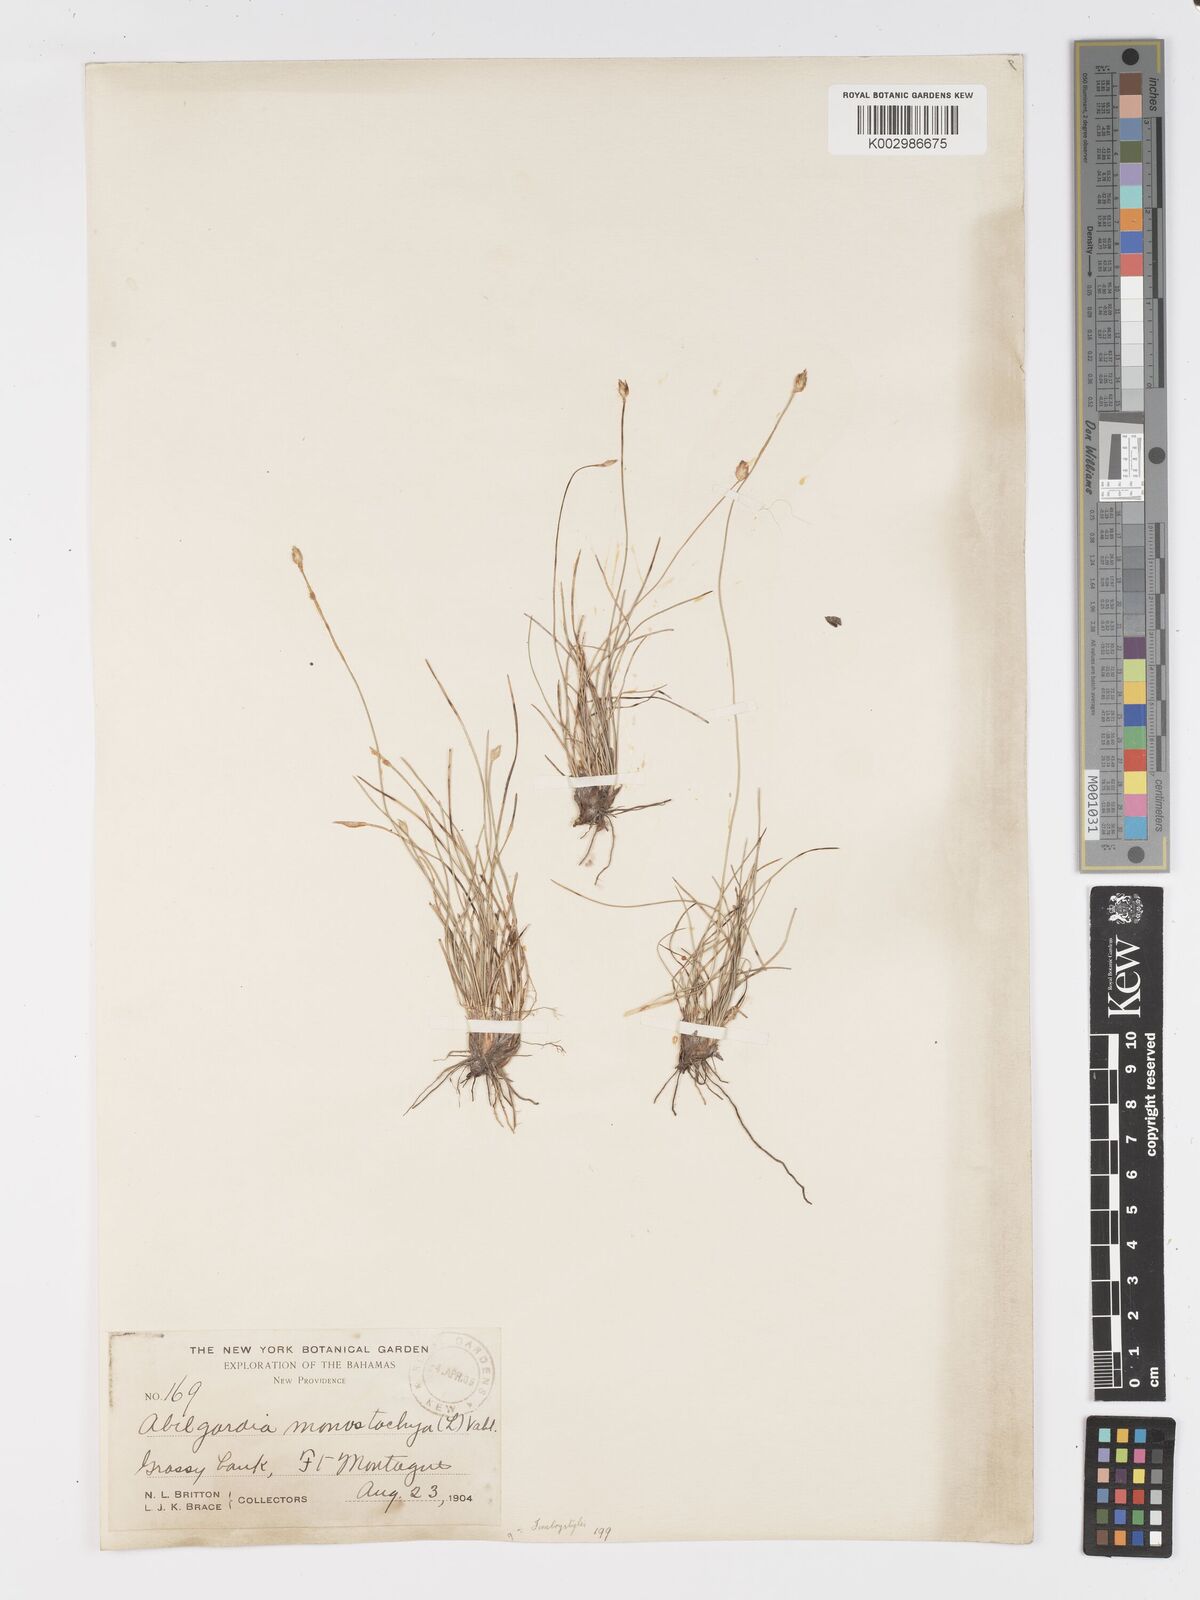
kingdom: Plantae
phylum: Tracheophyta
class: Liliopsida
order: Poales
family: Cyperaceae
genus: Abildgaardia
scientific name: Abildgaardia ovata
